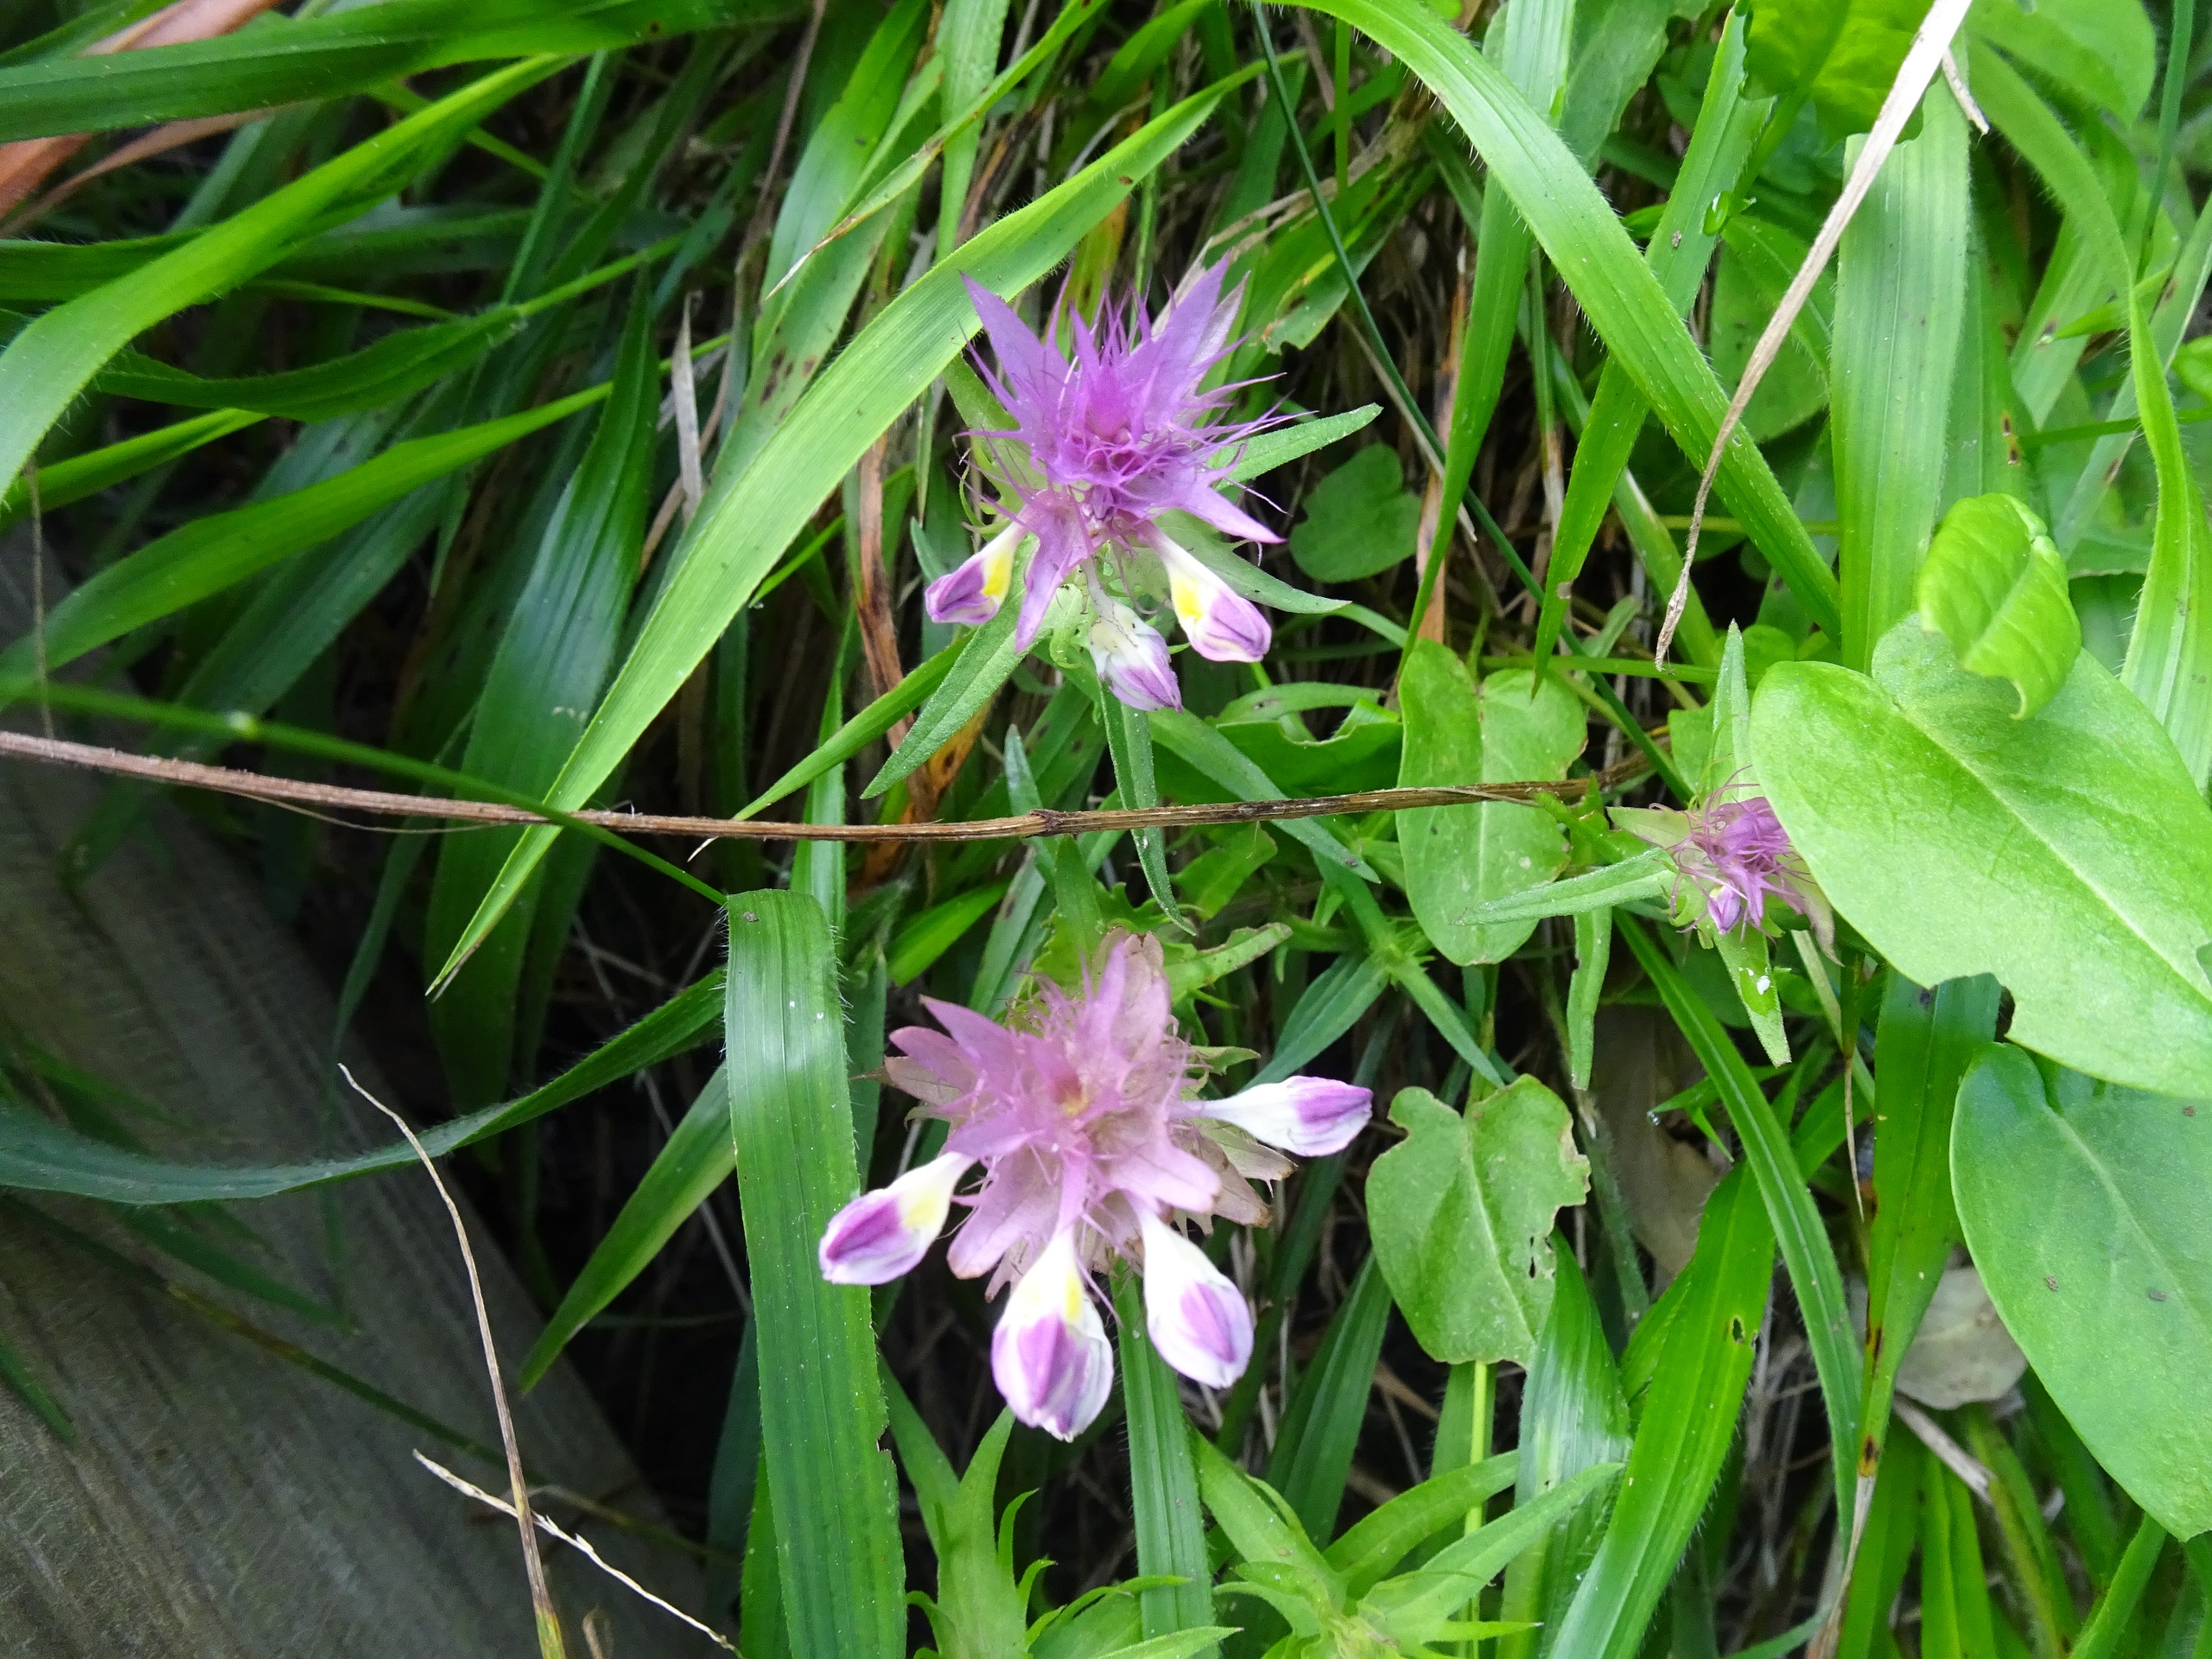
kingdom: Plantae
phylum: Tracheophyta
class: Magnoliopsida
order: Lamiales
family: Orobanchaceae
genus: Melampyrum
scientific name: Melampyrum arvense
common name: Ager-kohvede
